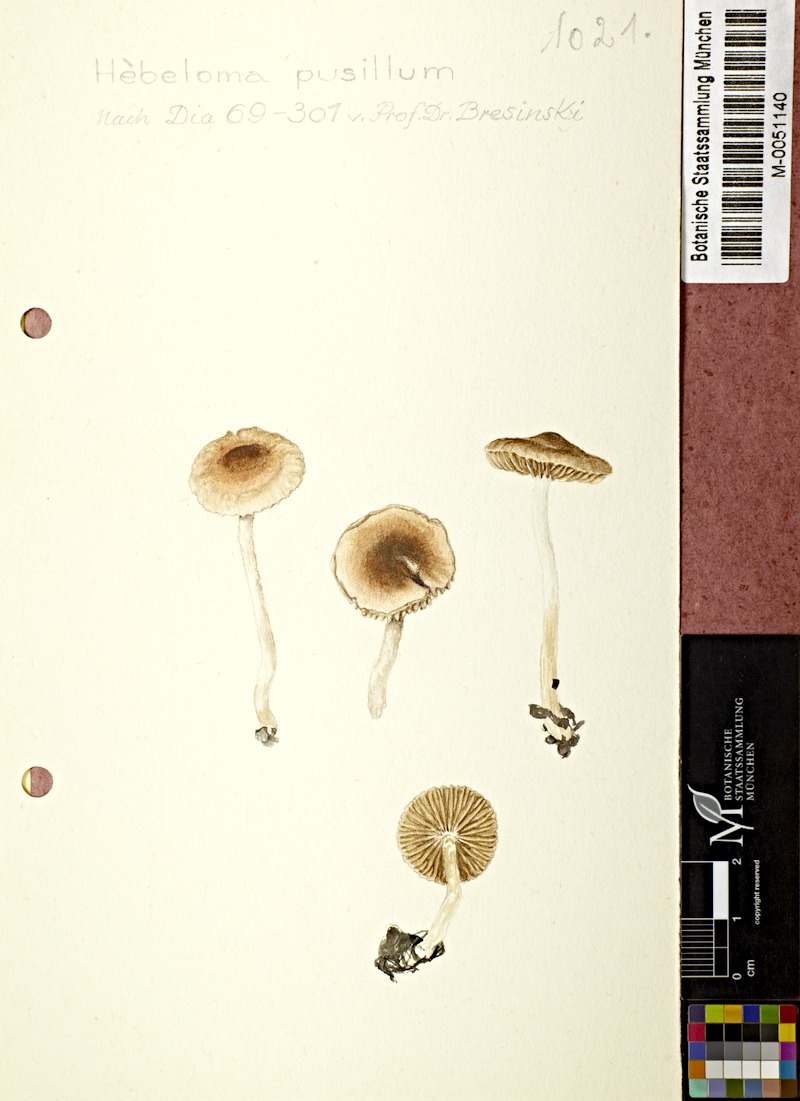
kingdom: Fungi
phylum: Basidiomycota
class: Agaricomycetes
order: Agaricales
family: Hymenogastraceae
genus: Hebeloma
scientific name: Hebeloma pusillum
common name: Dwarf poisonpie
